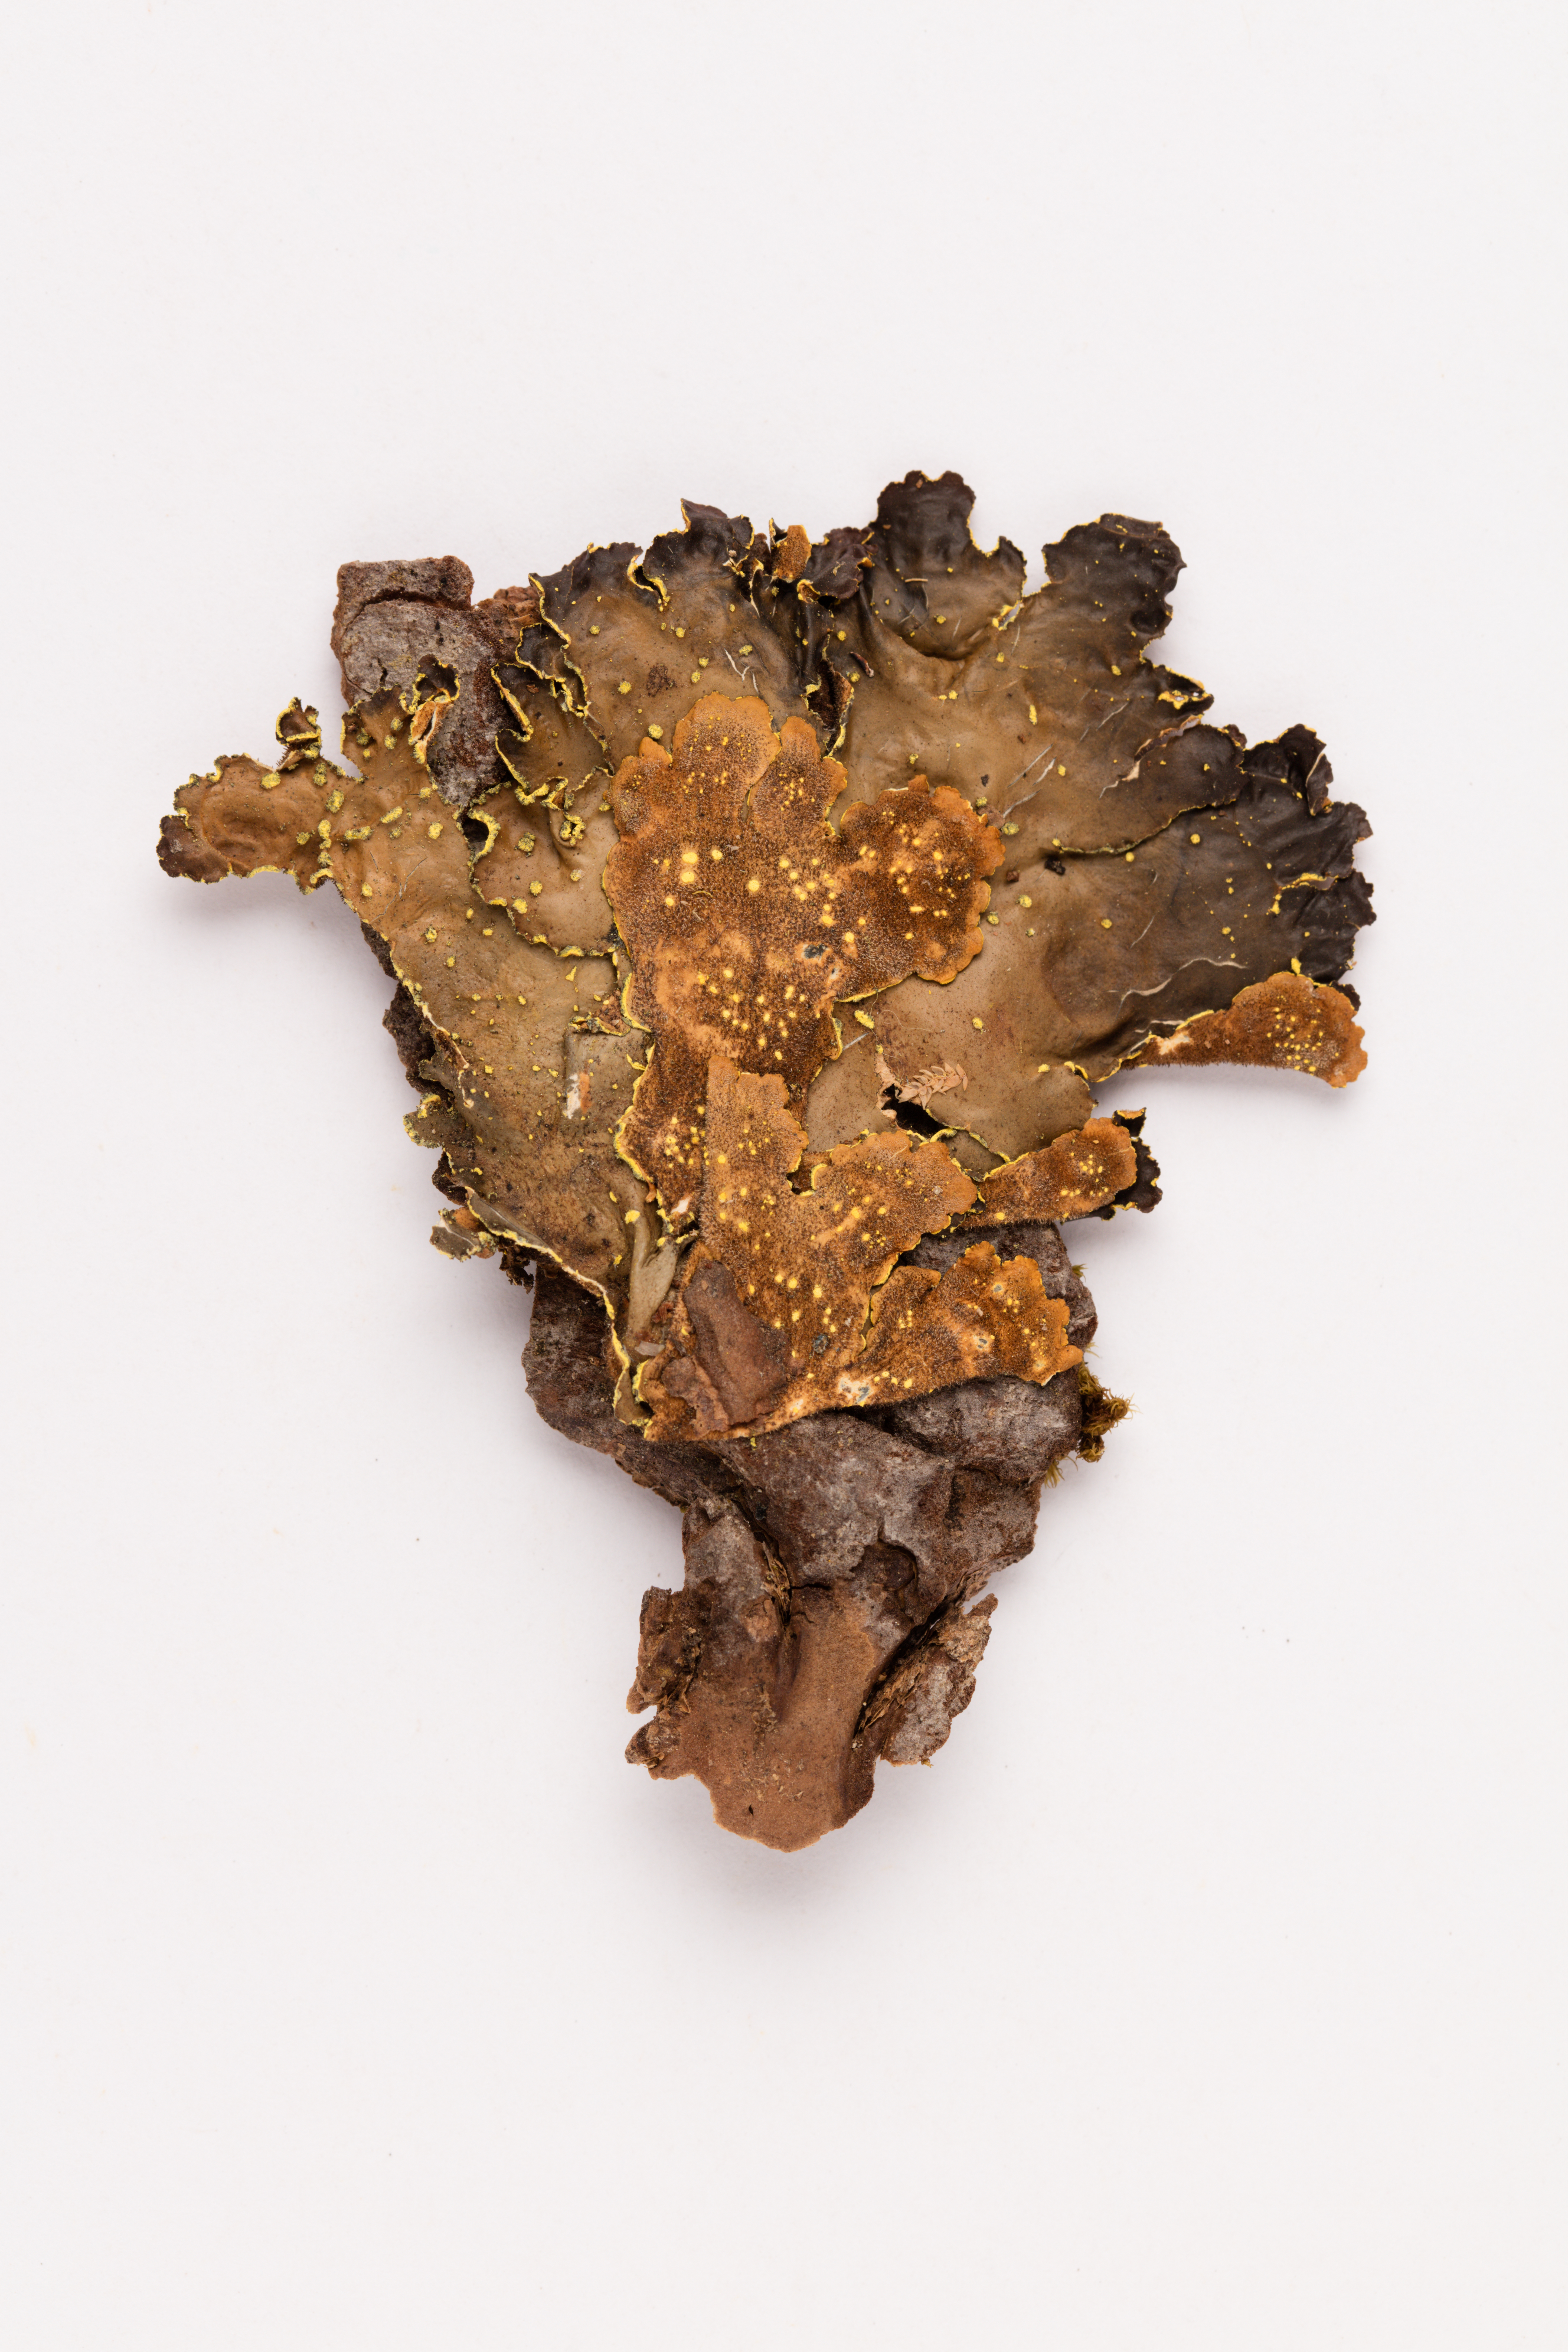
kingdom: Fungi
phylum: Ascomycota
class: Lecanoromycetes
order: Peltigerales
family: Lobariaceae
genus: Pseudocyphellaria
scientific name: Pseudocyphellaria crocata
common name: Golden specklebelly
